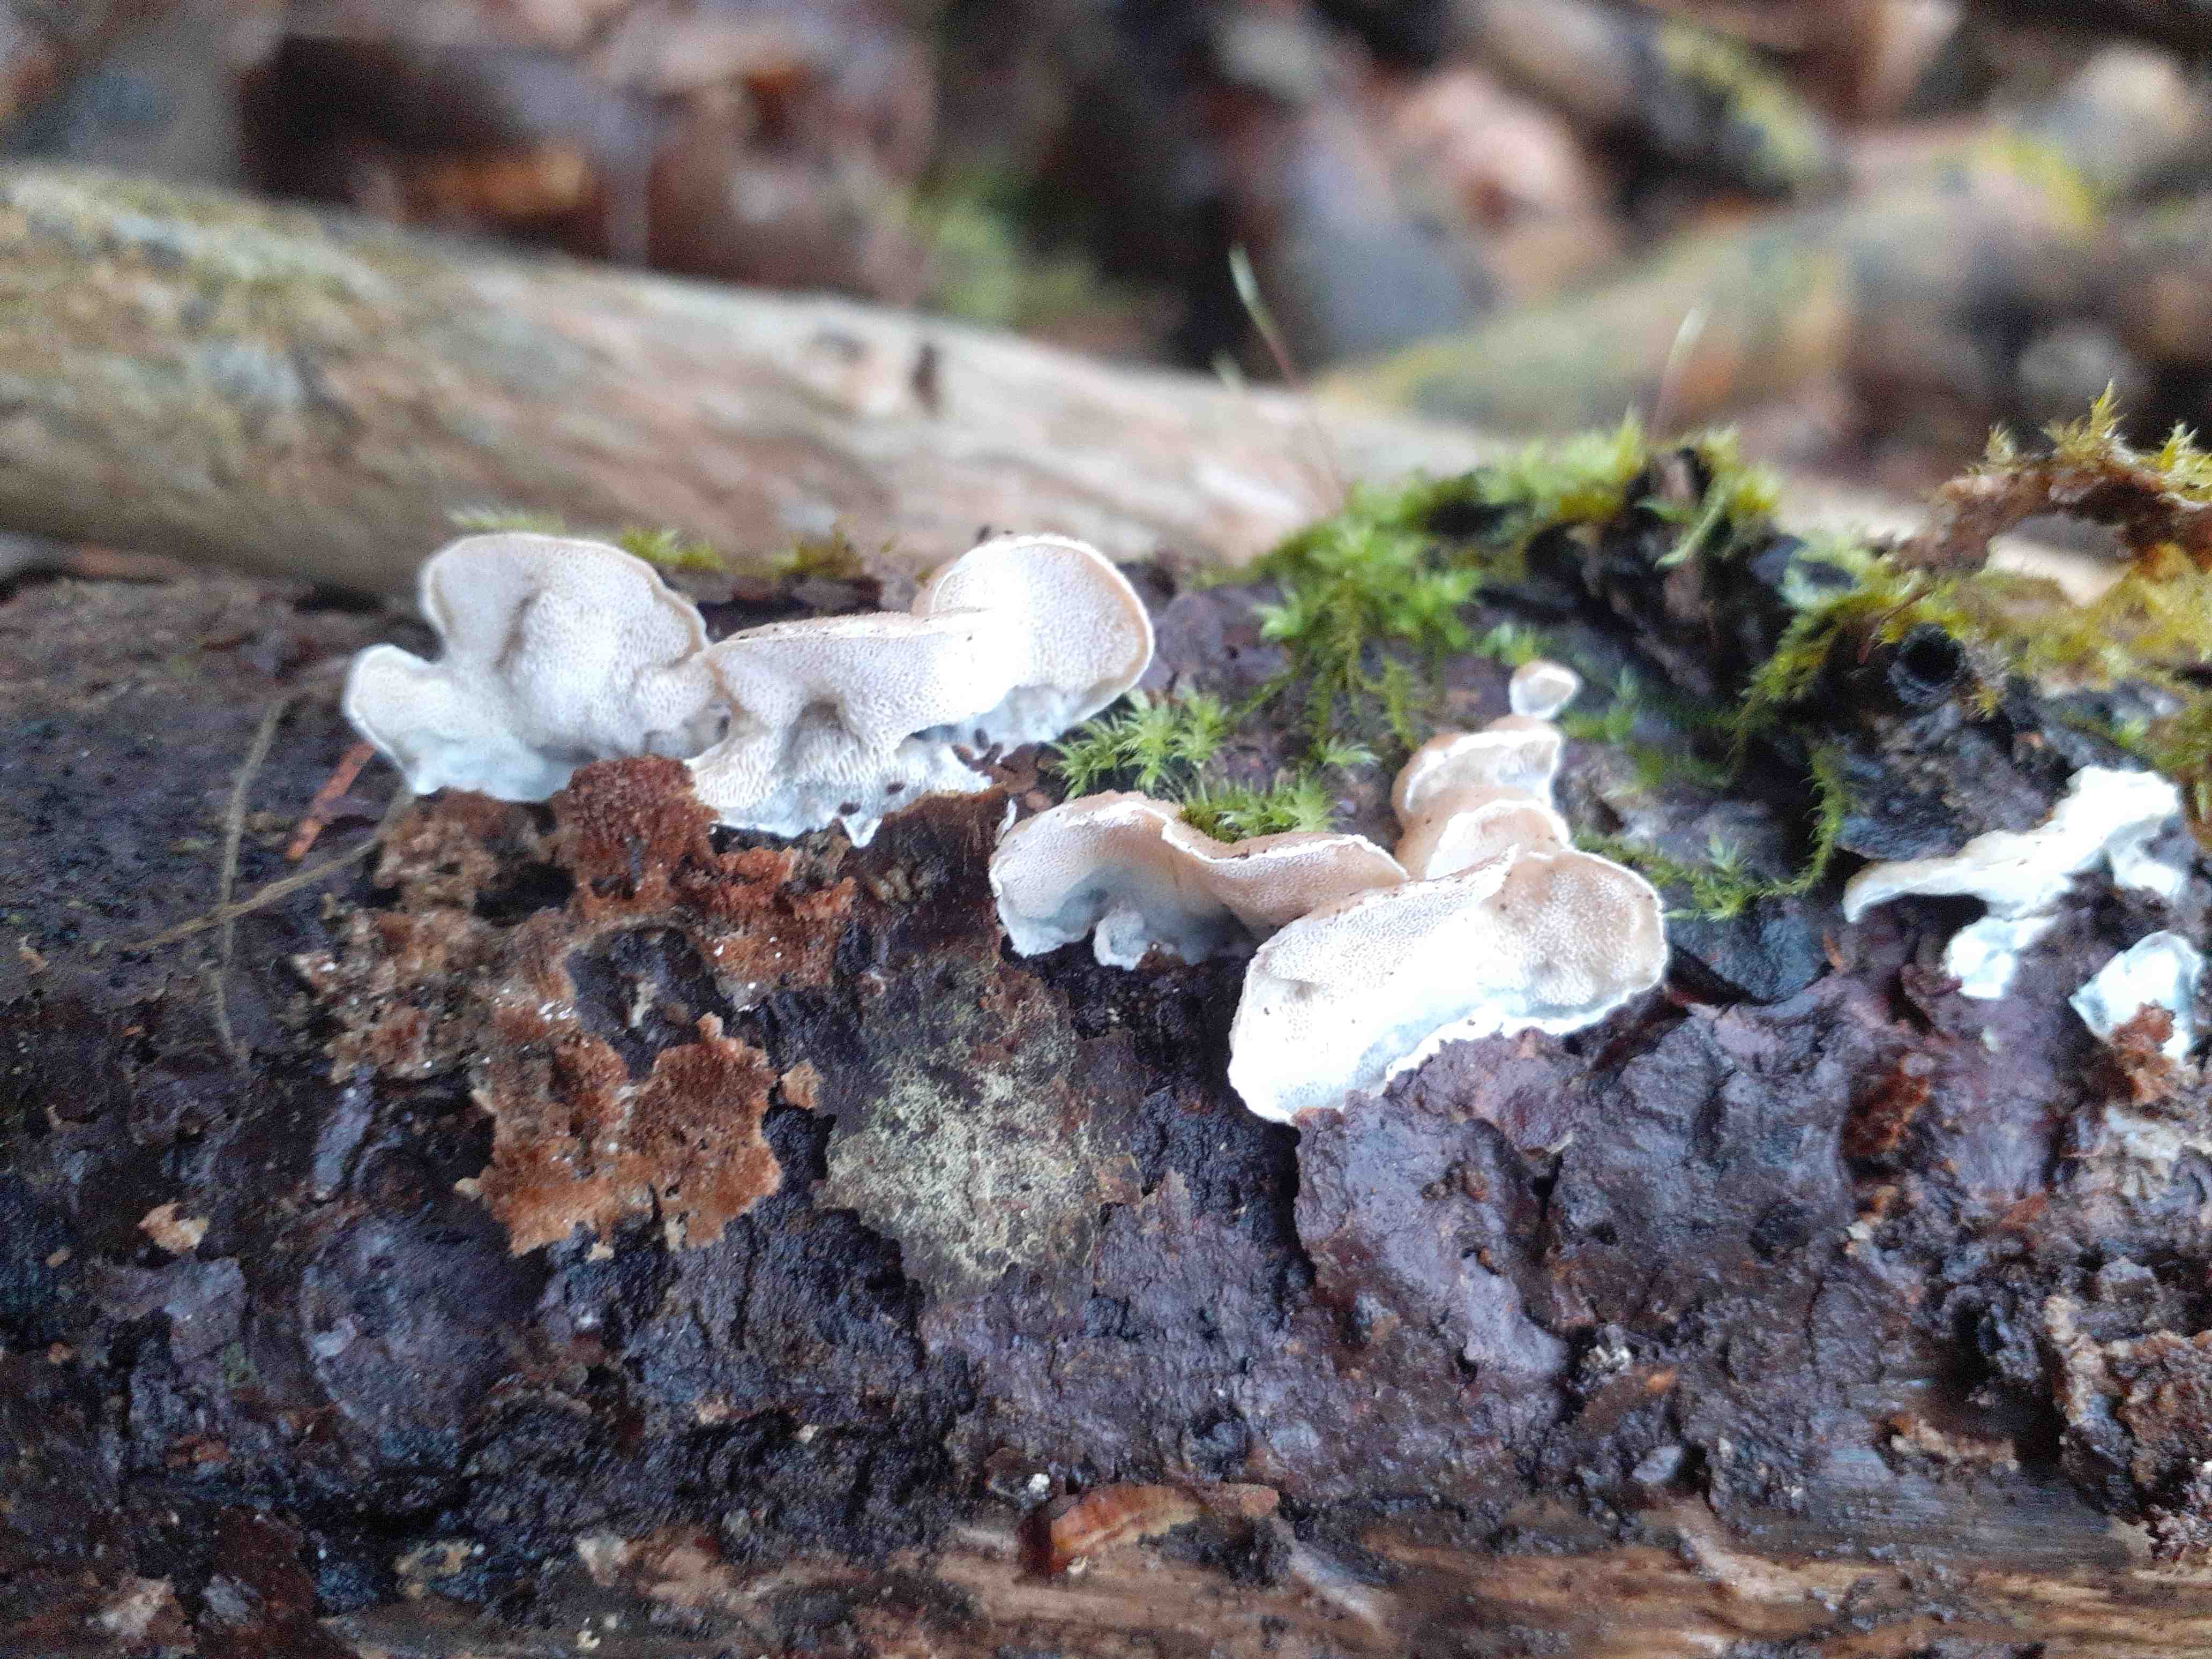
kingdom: Fungi
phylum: Basidiomycota
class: Agaricomycetes
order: Polyporales
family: Incrustoporiaceae
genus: Skeletocutis
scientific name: Skeletocutis carneogrisea
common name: rødgrå krystalporesvamp
